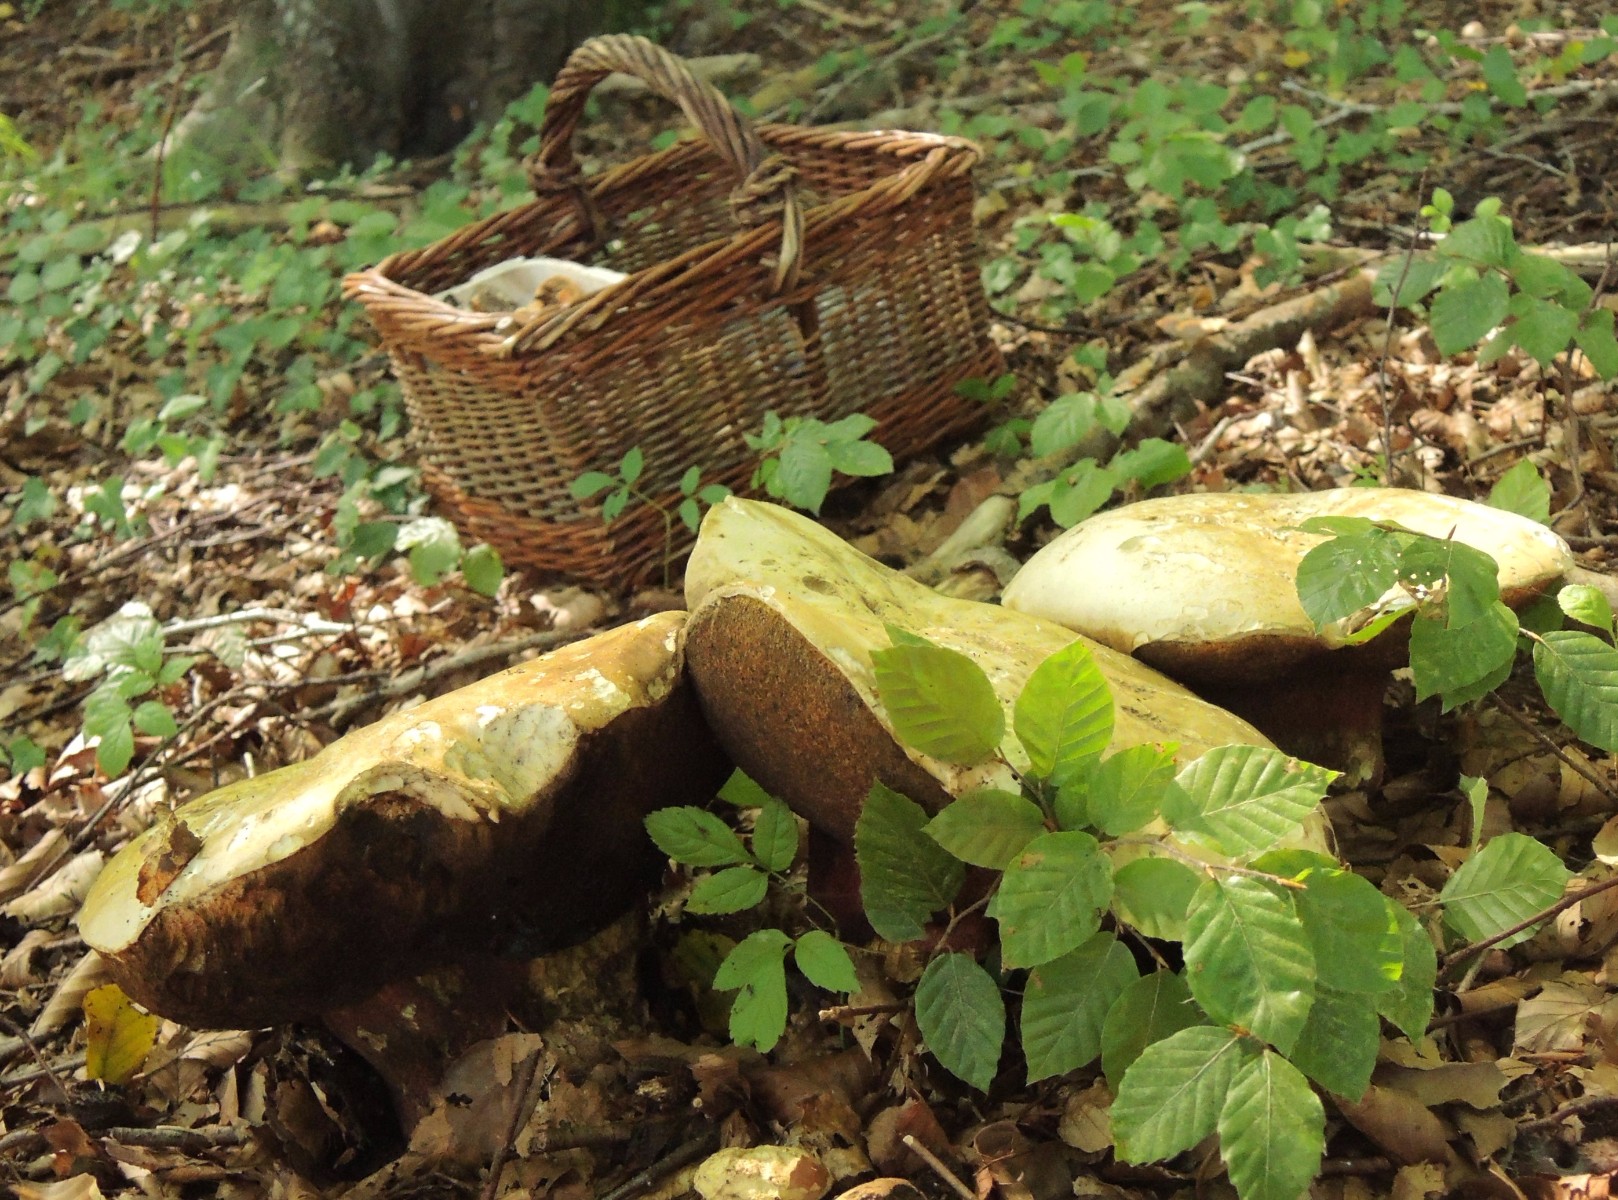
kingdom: Fungi
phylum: Basidiomycota
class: Agaricomycetes
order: Boletales
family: Boletaceae
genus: Rubroboletus
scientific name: Rubroboletus satanas
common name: Satans rørhat
